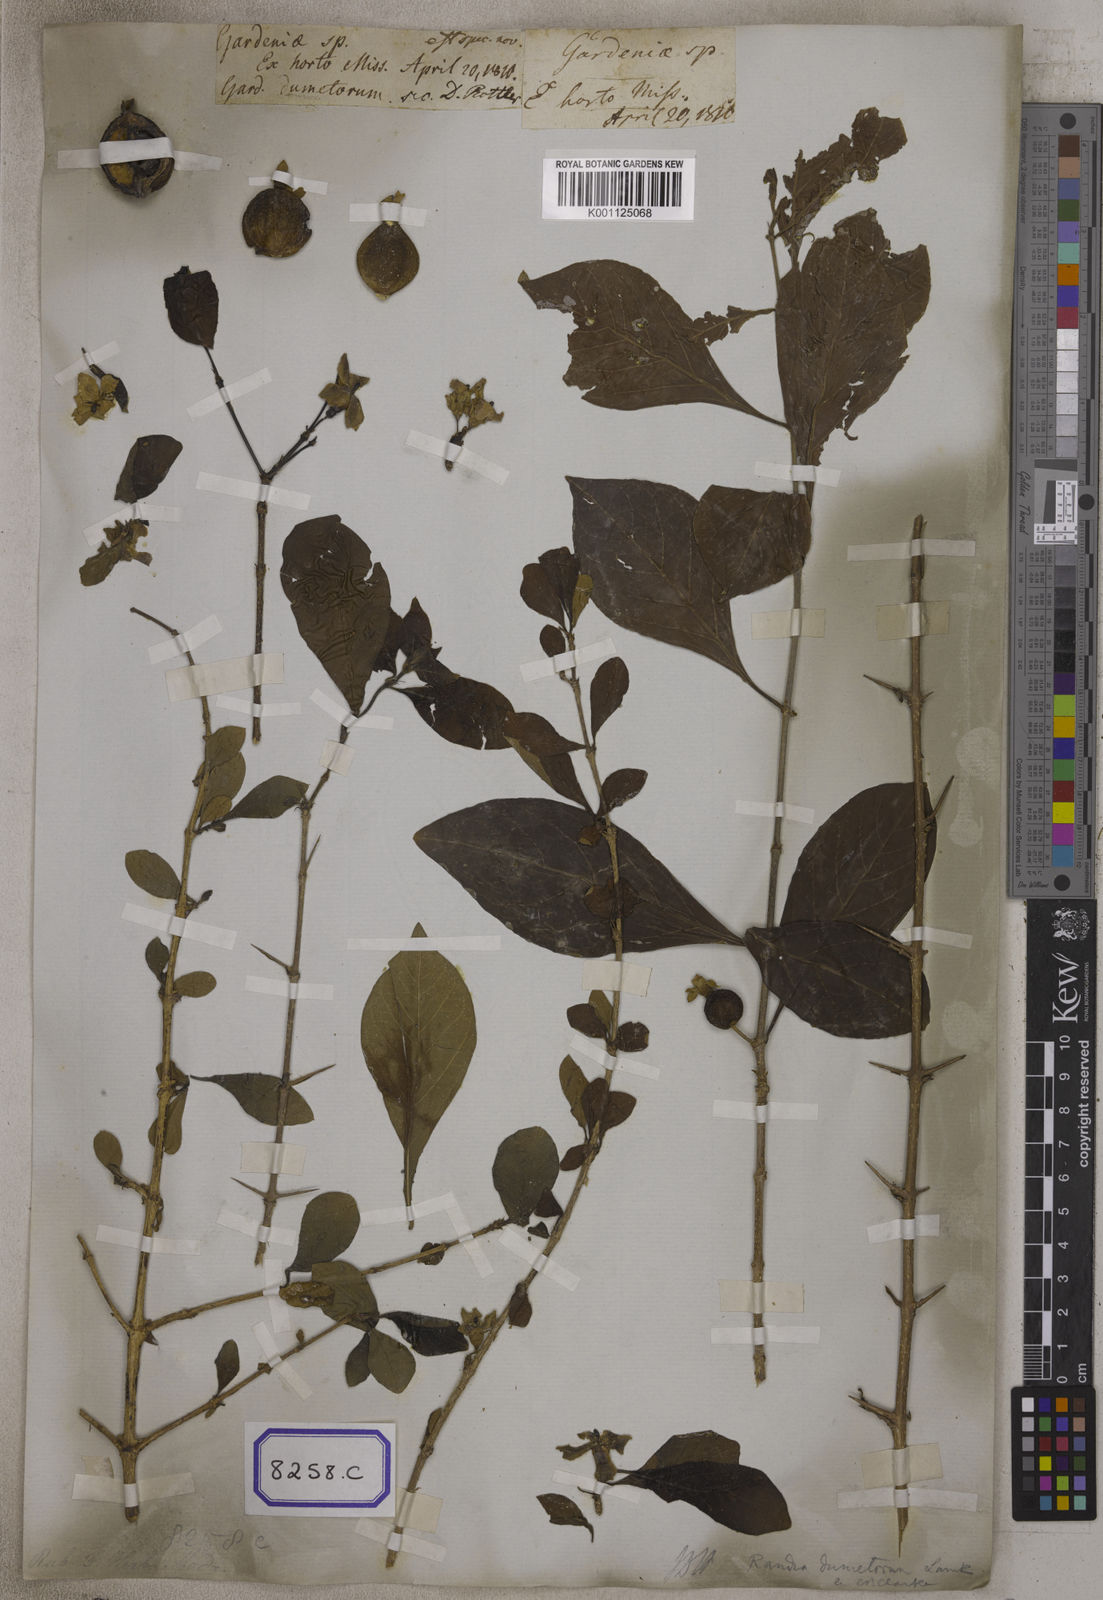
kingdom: Plantae
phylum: Tracheophyta
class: Magnoliopsida
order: Gentianales
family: Rubiaceae
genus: Gardenia
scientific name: Gardenia
